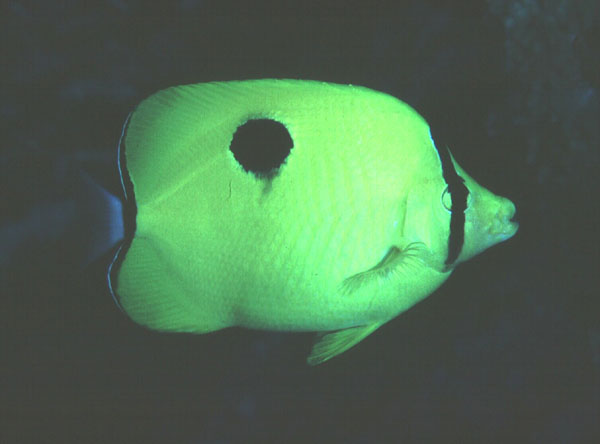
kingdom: Animalia
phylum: Chordata
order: Perciformes
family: Chaetodontidae
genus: Chaetodon
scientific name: Chaetodon unimaculatus
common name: Teardrop butterflyfish
